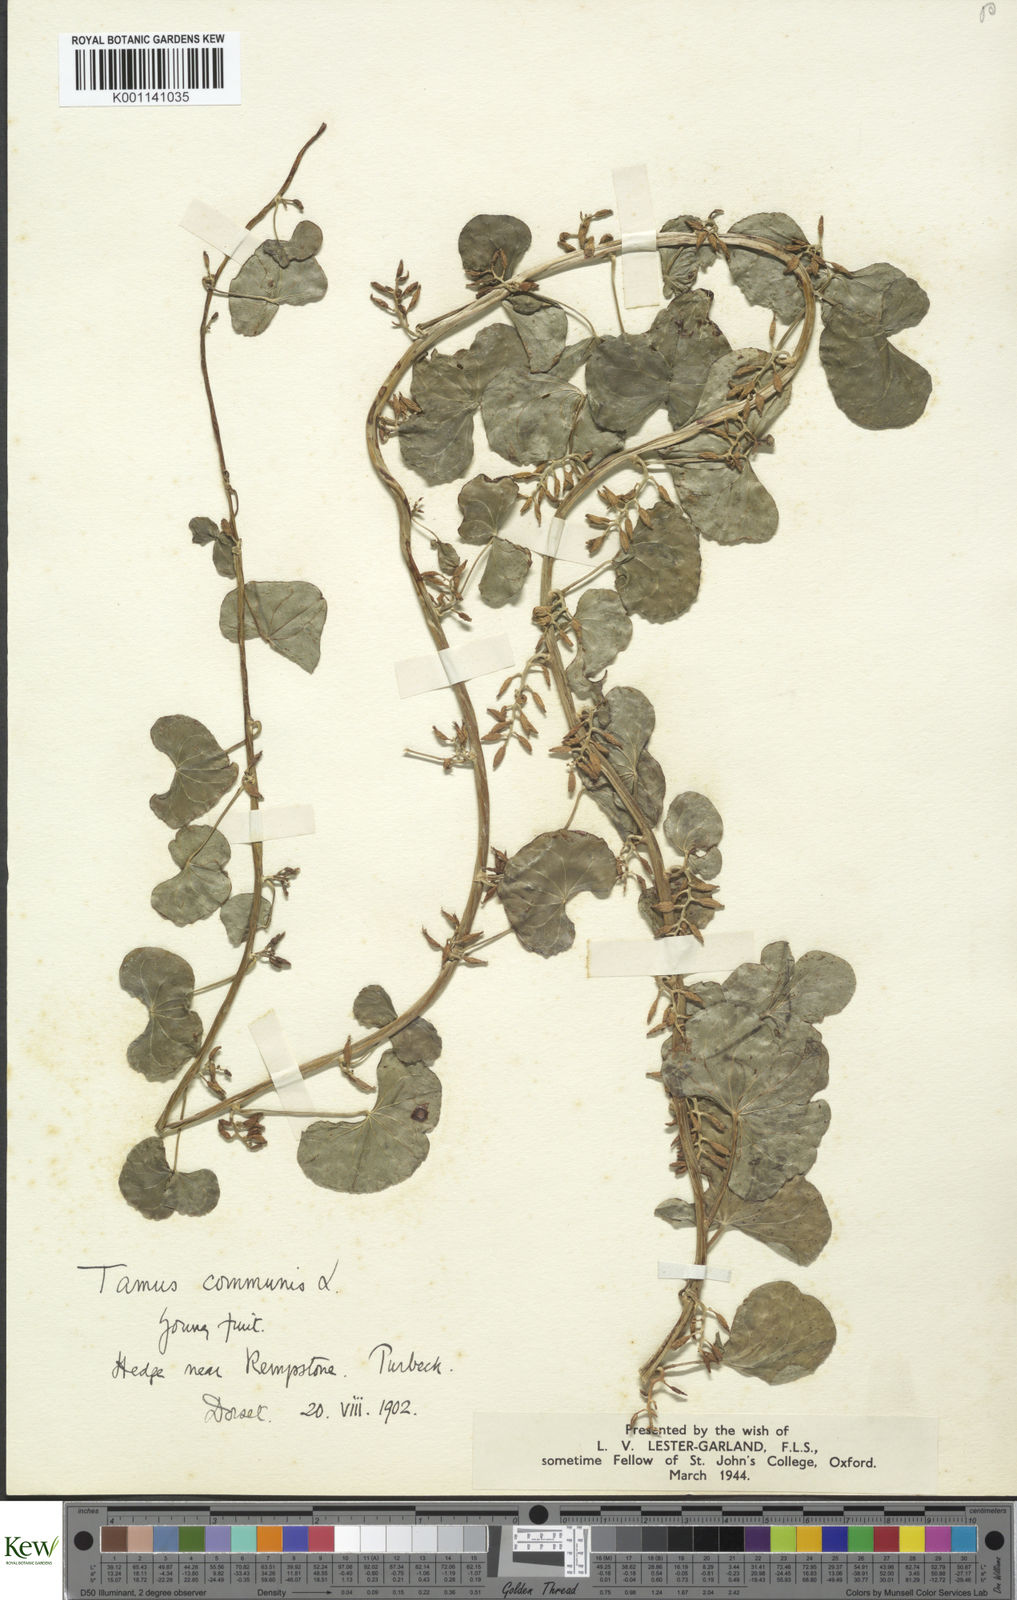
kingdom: Plantae
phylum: Tracheophyta
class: Liliopsida
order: Dioscoreales
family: Dioscoreaceae
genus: Dioscorea
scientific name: Dioscorea communis
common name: Black-bindweed
